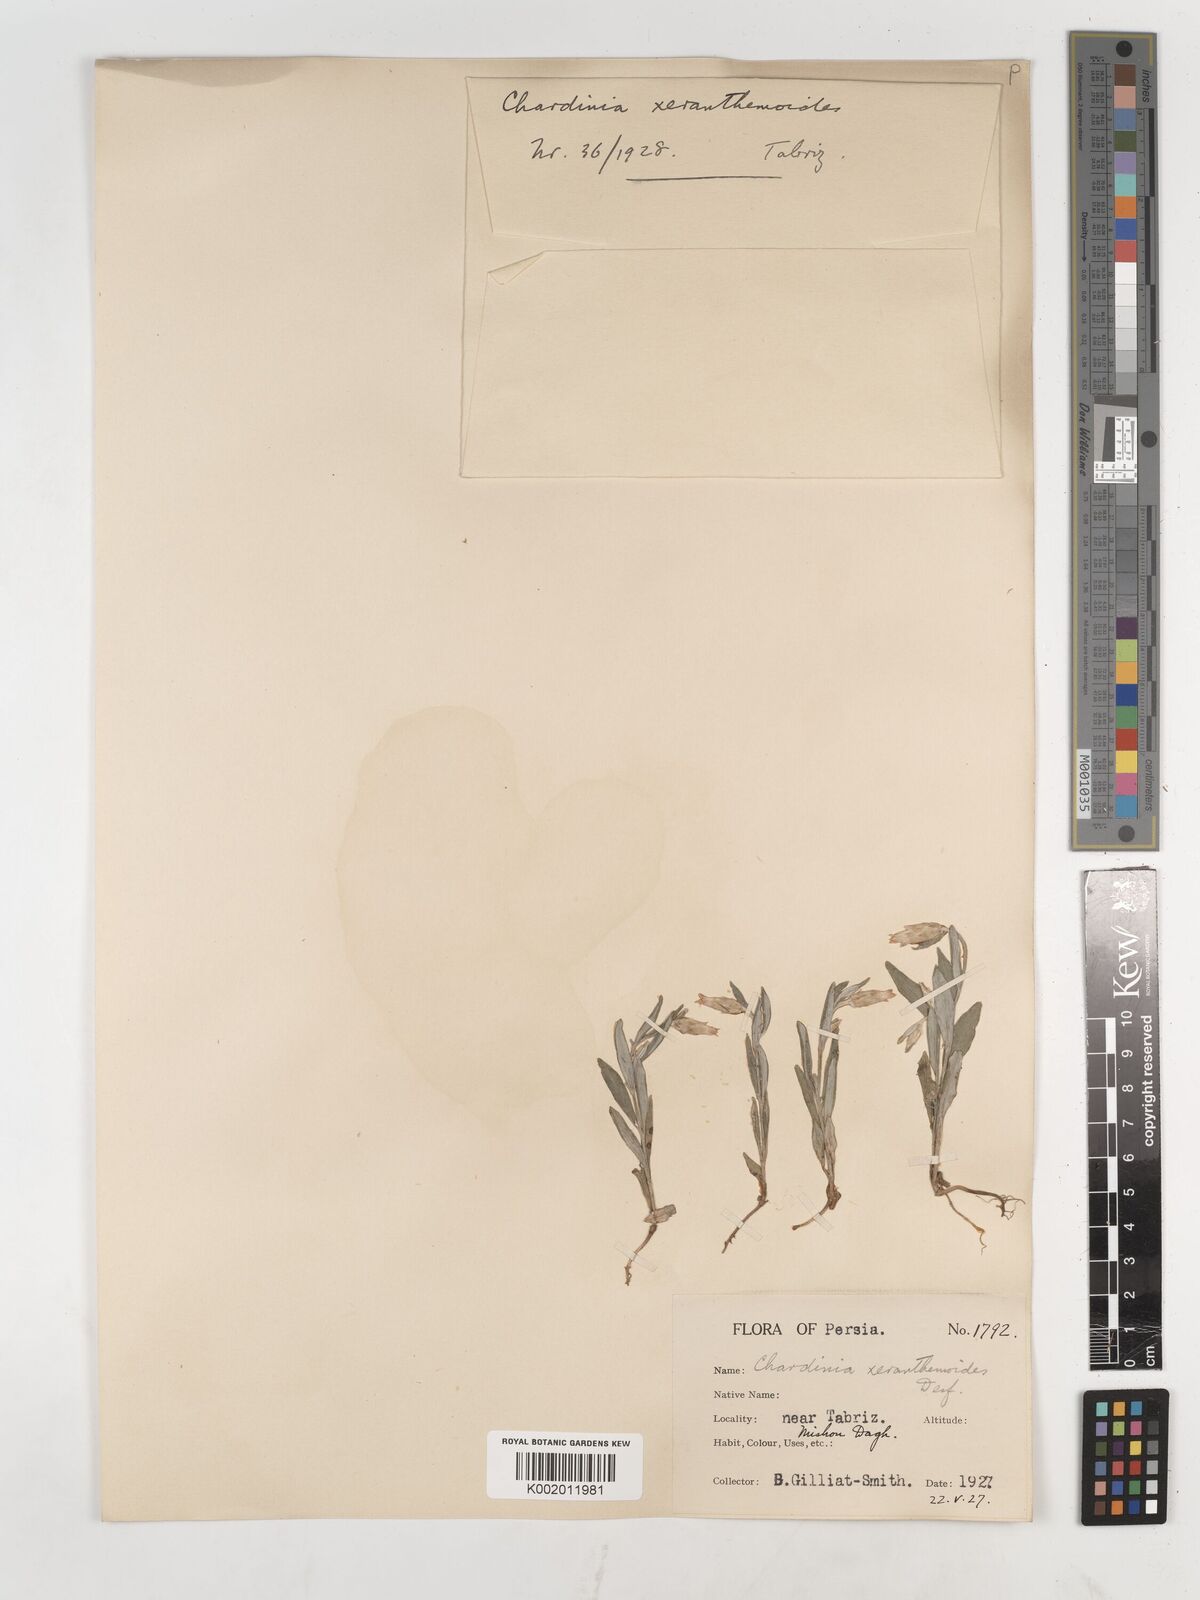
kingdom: Plantae
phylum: Tracheophyta
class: Magnoliopsida
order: Asterales
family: Asteraceae
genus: Chardinia
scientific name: Chardinia orientalis
